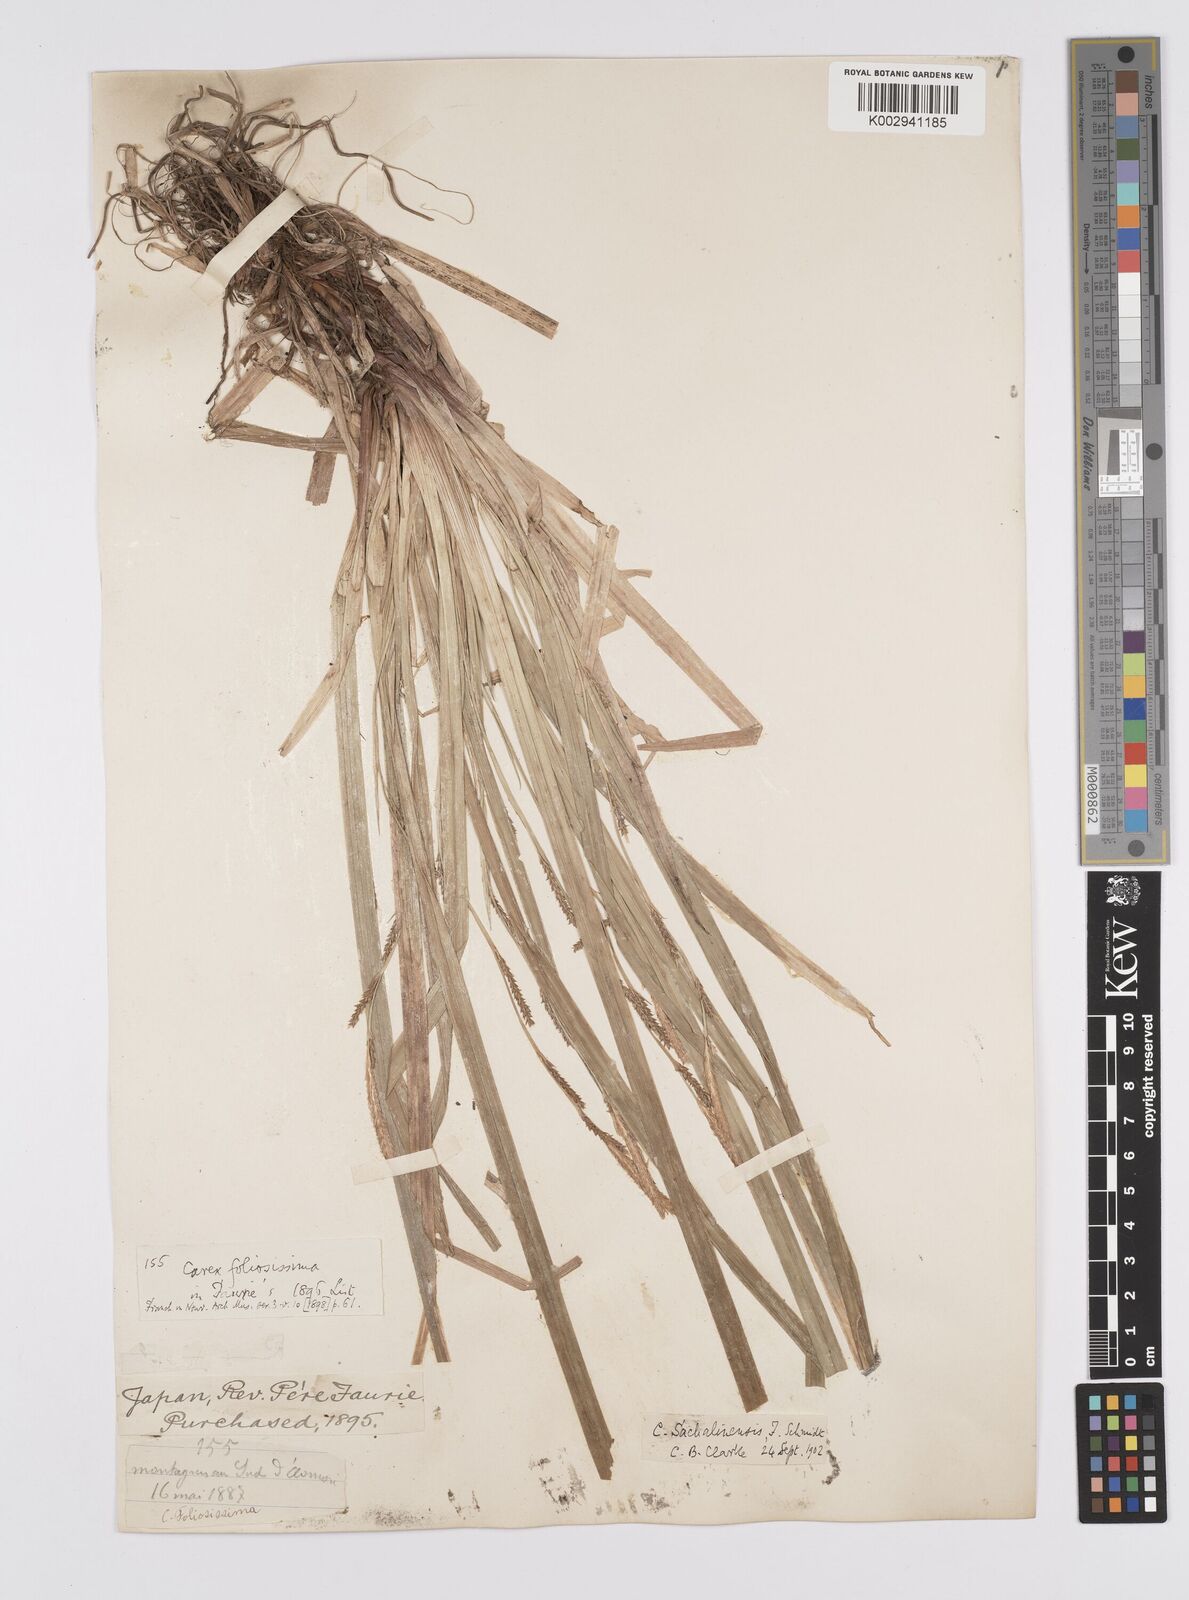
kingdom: Plantae
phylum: Tracheophyta
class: Liliopsida
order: Poales
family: Cyperaceae
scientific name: Cyperaceae
